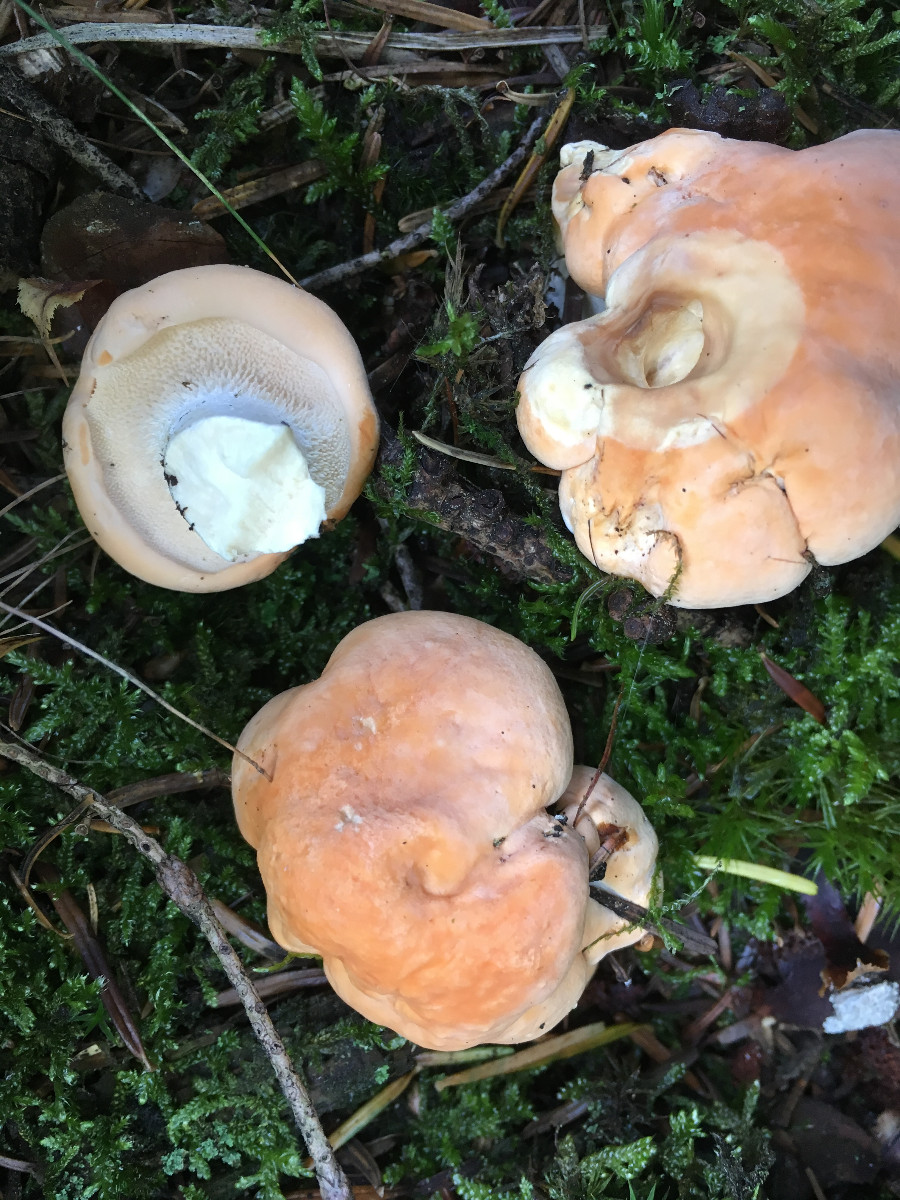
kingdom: Fungi
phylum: Basidiomycota
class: Agaricomycetes
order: Cantharellales
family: Hydnaceae
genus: Hydnum
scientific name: Hydnum repandum
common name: almindelig pigsvamp
